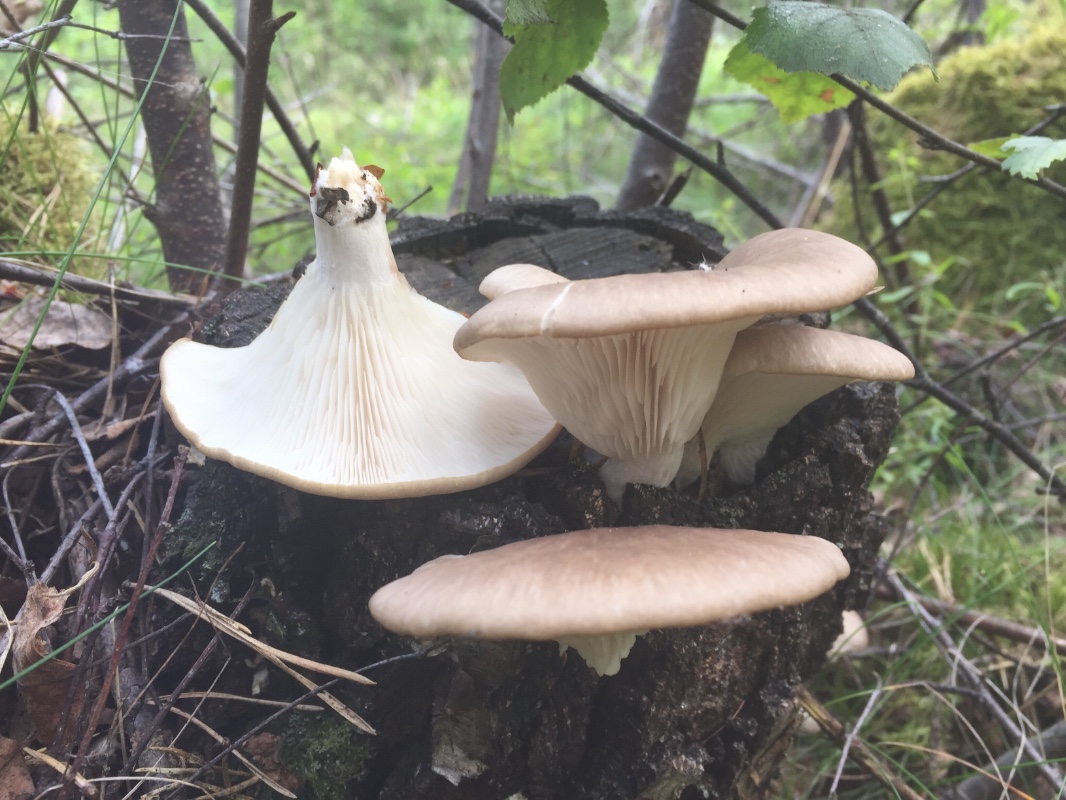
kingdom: Fungi
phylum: Basidiomycota
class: Agaricomycetes
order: Agaricales
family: Pleurotaceae
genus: Pleurotus
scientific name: Pleurotus pulmonarius
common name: sommer-østershat
